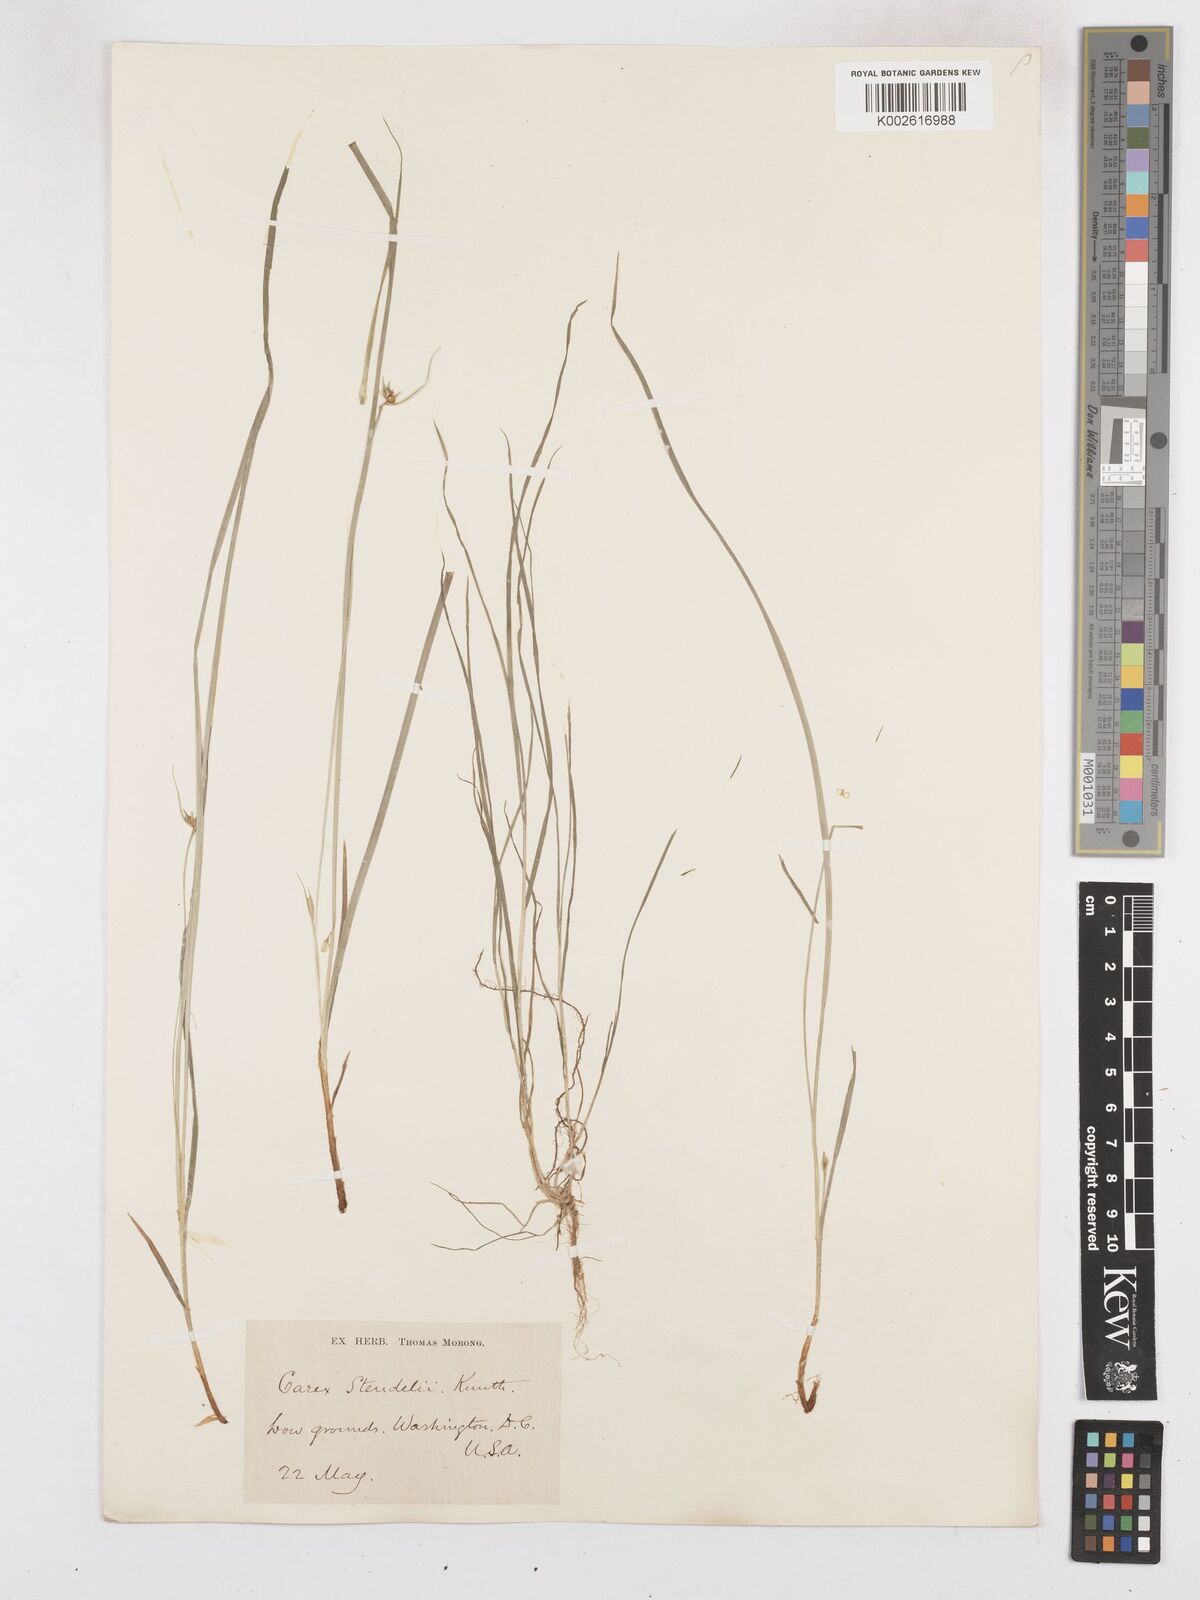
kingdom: Plantae
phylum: Tracheophyta
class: Liliopsida
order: Poales
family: Cyperaceae
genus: Carex
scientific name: Carex jamesii
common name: Grass sedge
